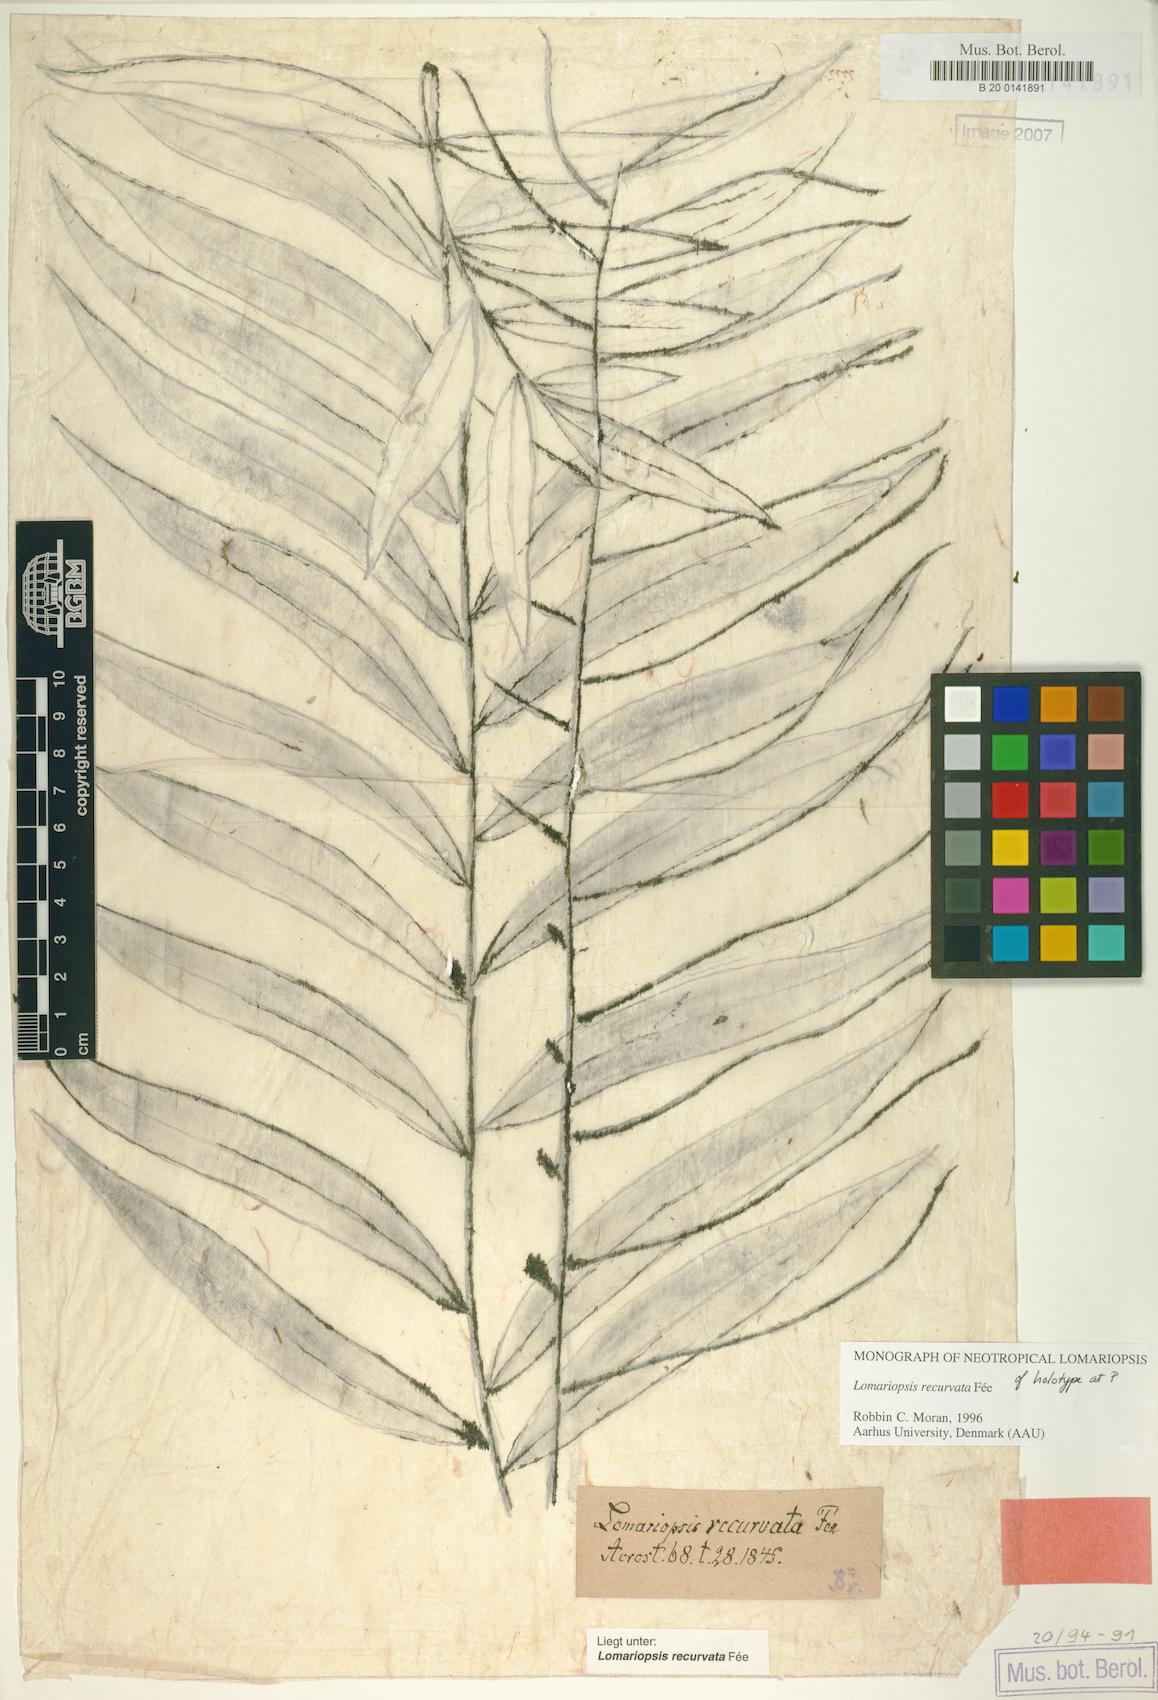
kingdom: Plantae
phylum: Tracheophyta
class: Polypodiopsida
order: Polypodiales
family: Lomariopsidaceae
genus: Lomariopsis
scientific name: Lomariopsis recurvata
